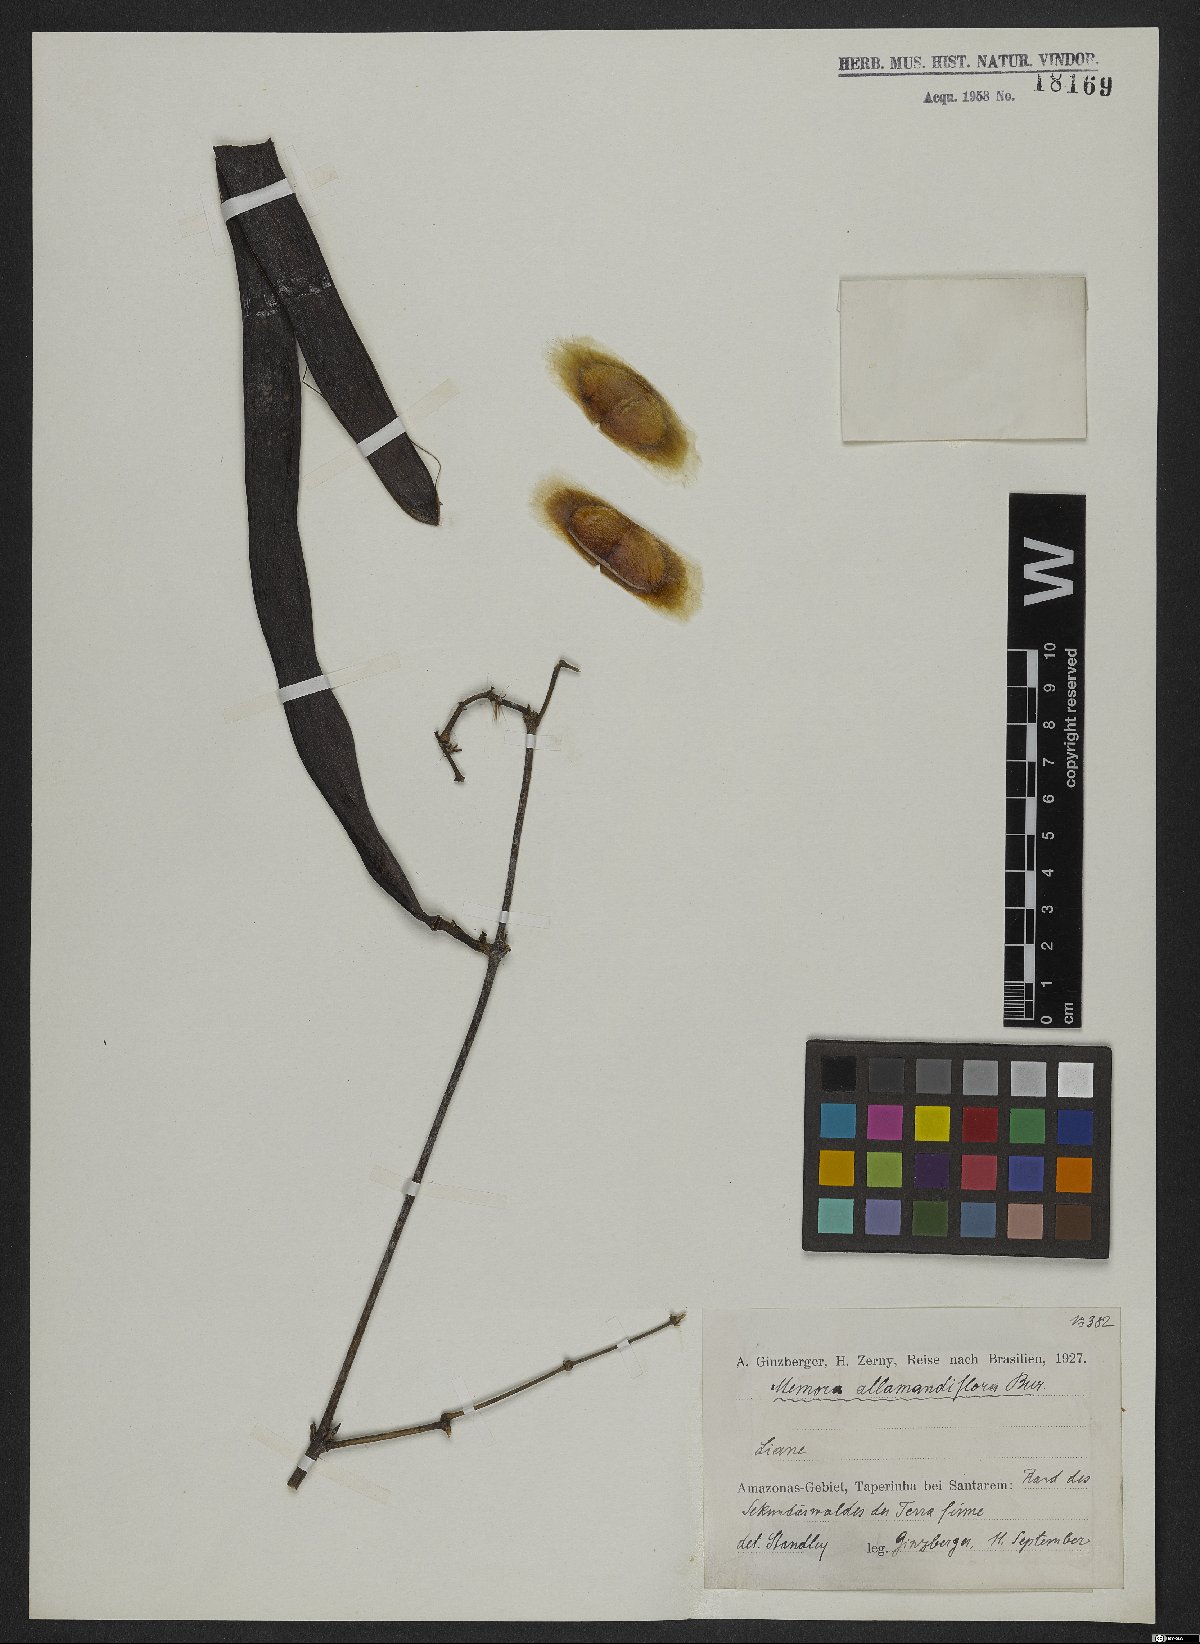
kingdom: Plantae
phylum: Tracheophyta
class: Magnoliopsida
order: Lamiales
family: Bignoniaceae
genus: Adenocalymma
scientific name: Adenocalymma allamandiflorum
